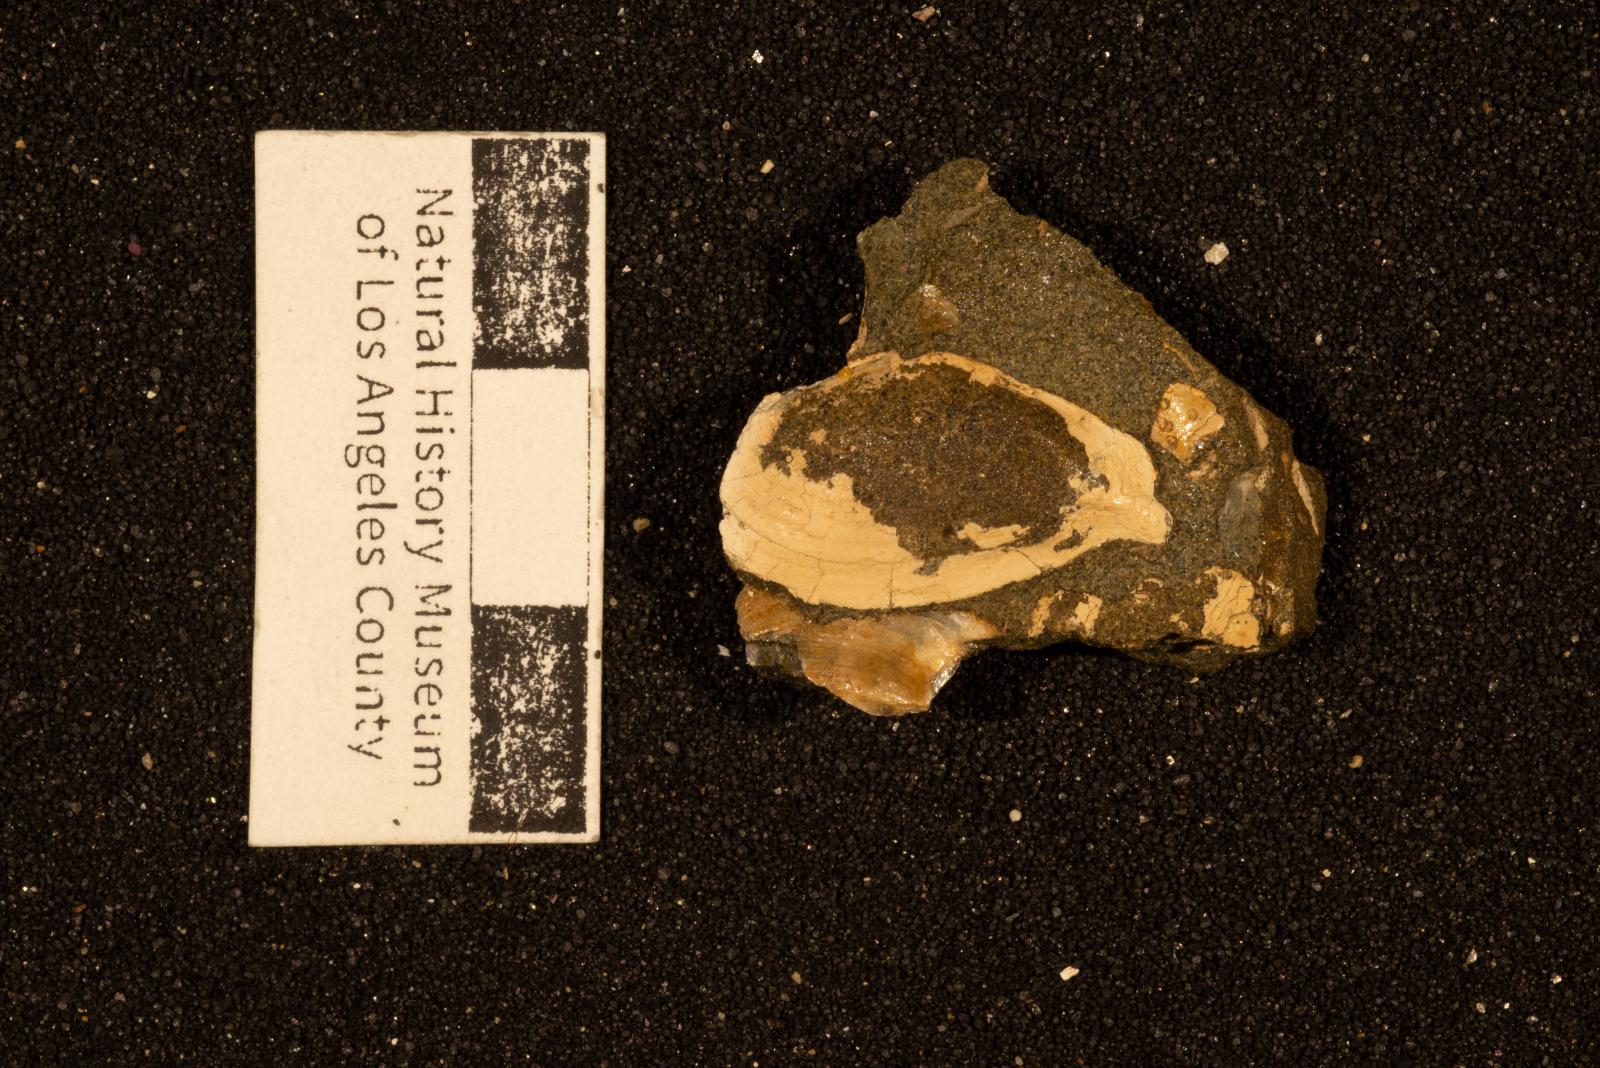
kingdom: Animalia
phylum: Mollusca
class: Bivalvia
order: Cardiida
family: Tellinidae
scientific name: Tellinidae
